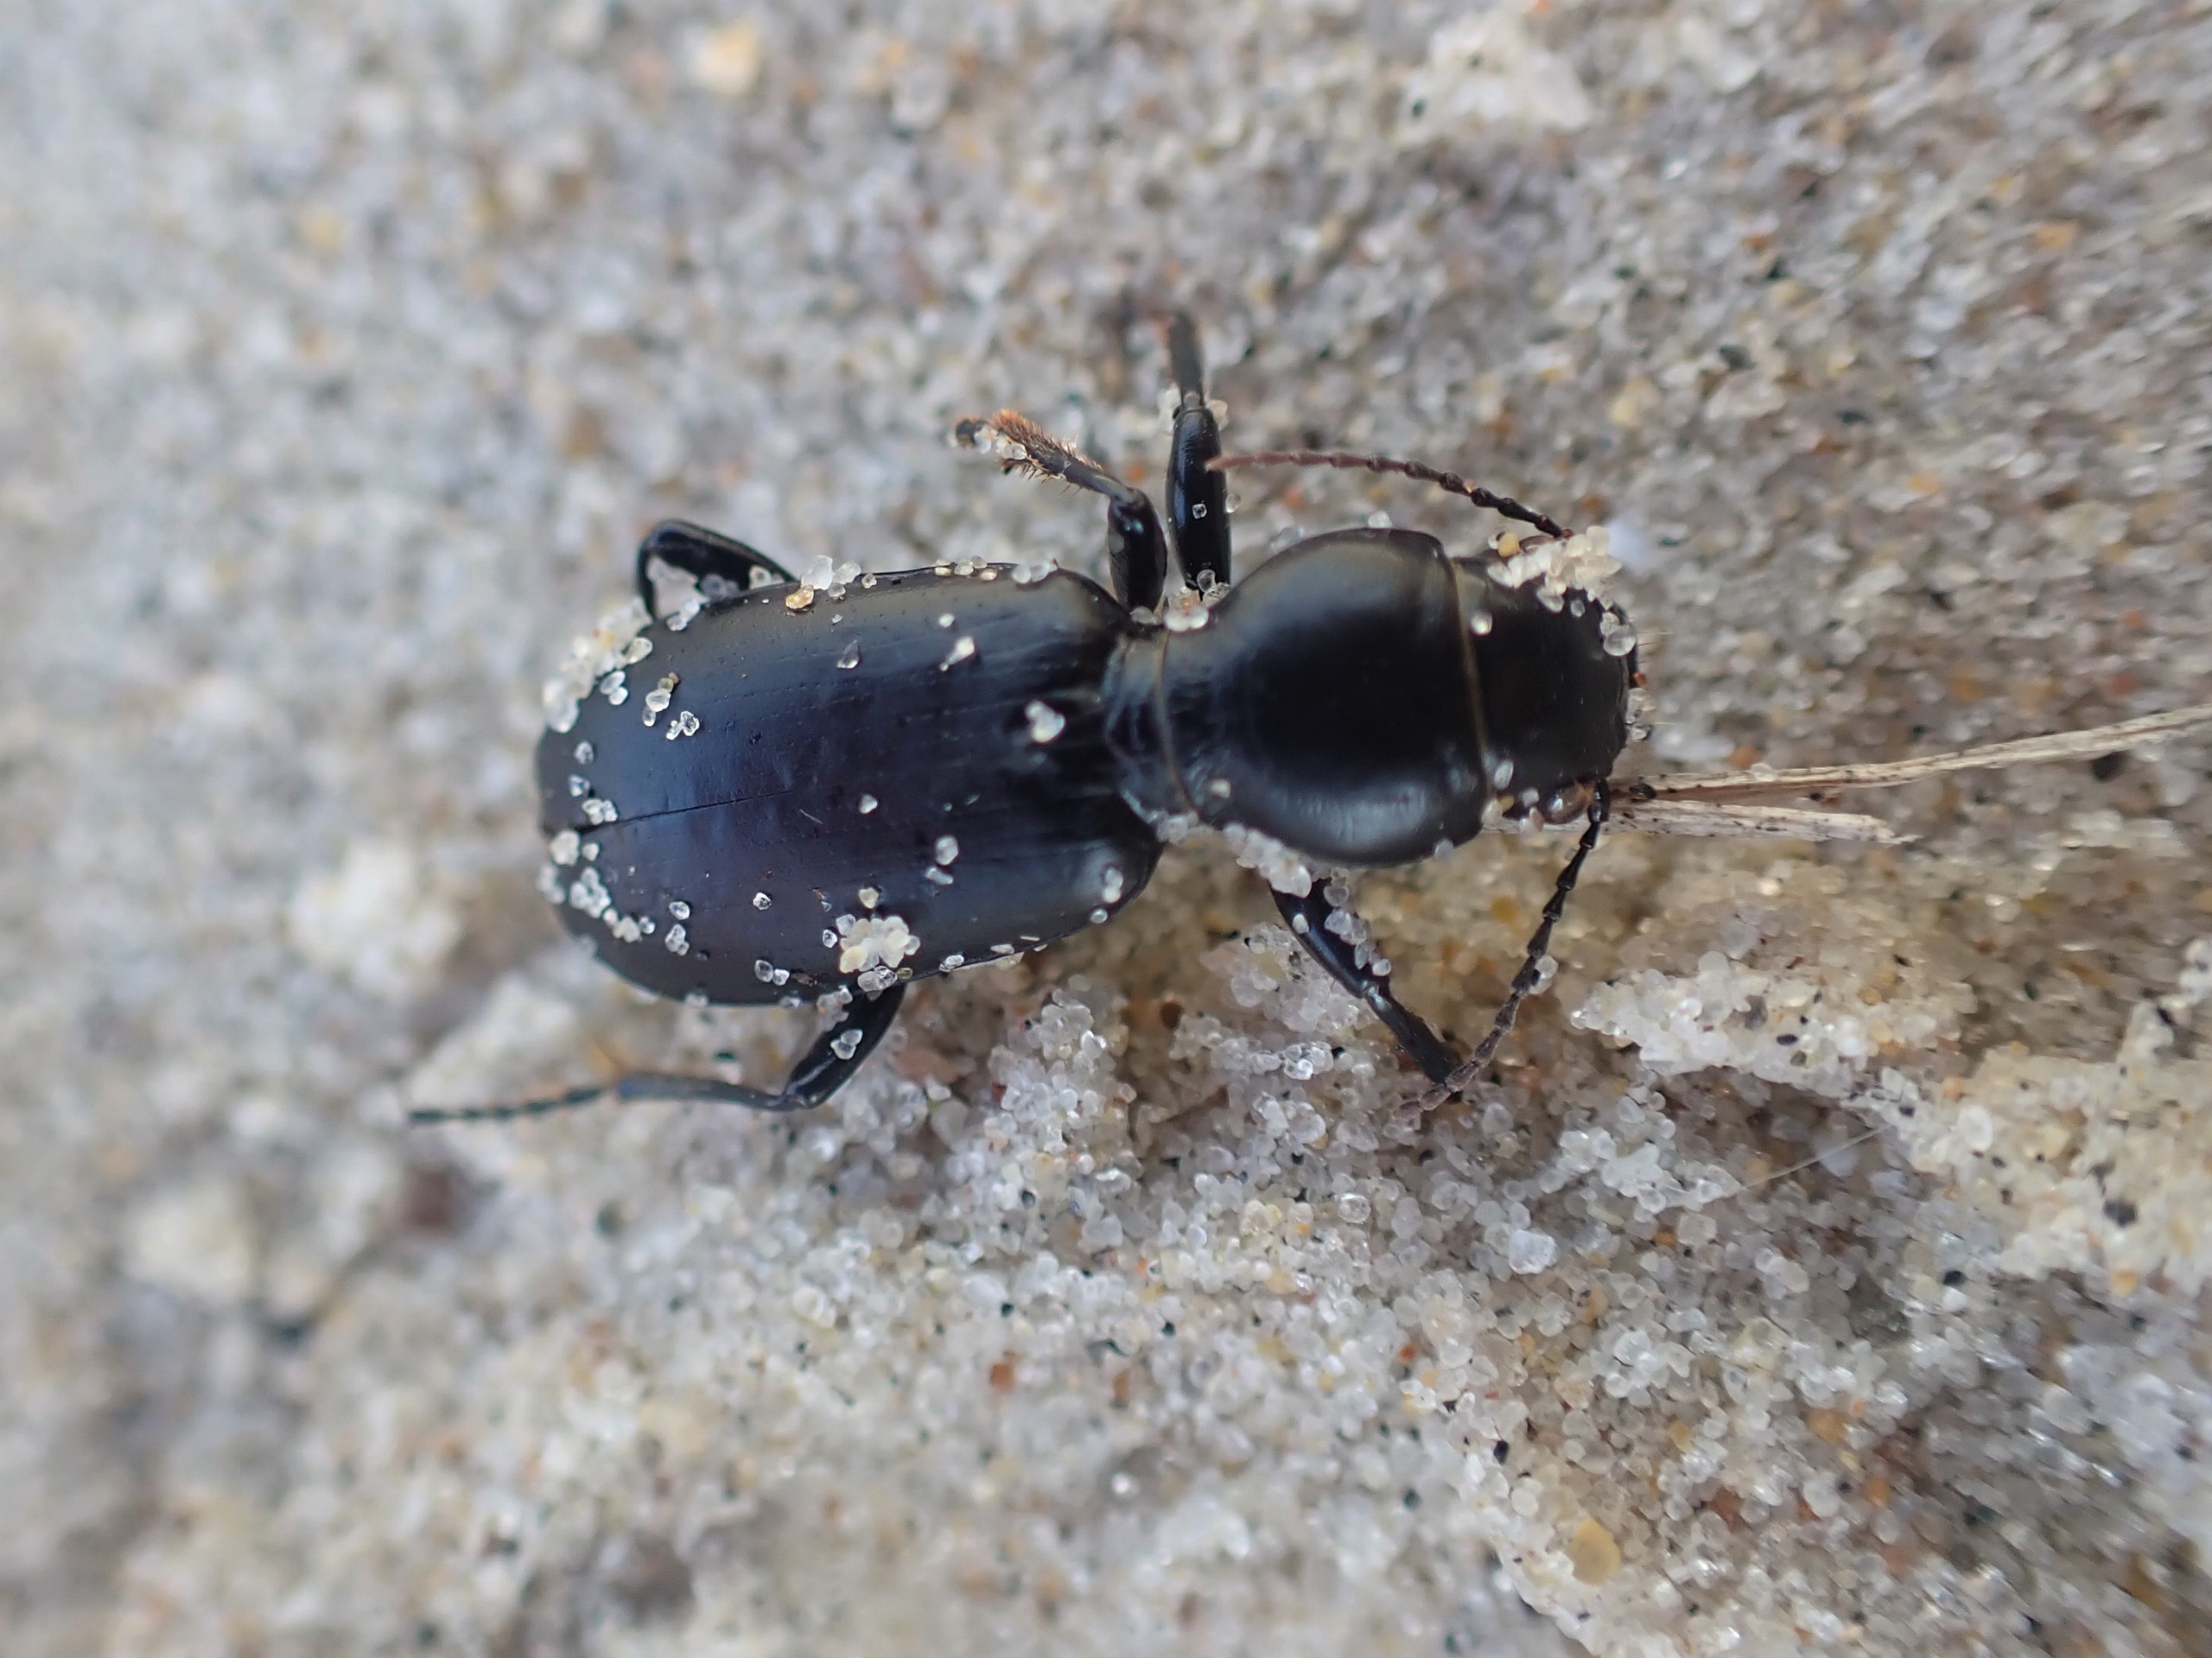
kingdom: Animalia
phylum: Arthropoda
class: Insecta
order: Coleoptera
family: Carabidae
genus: Broscus
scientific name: Broscus cephalotes
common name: Sandgraver
